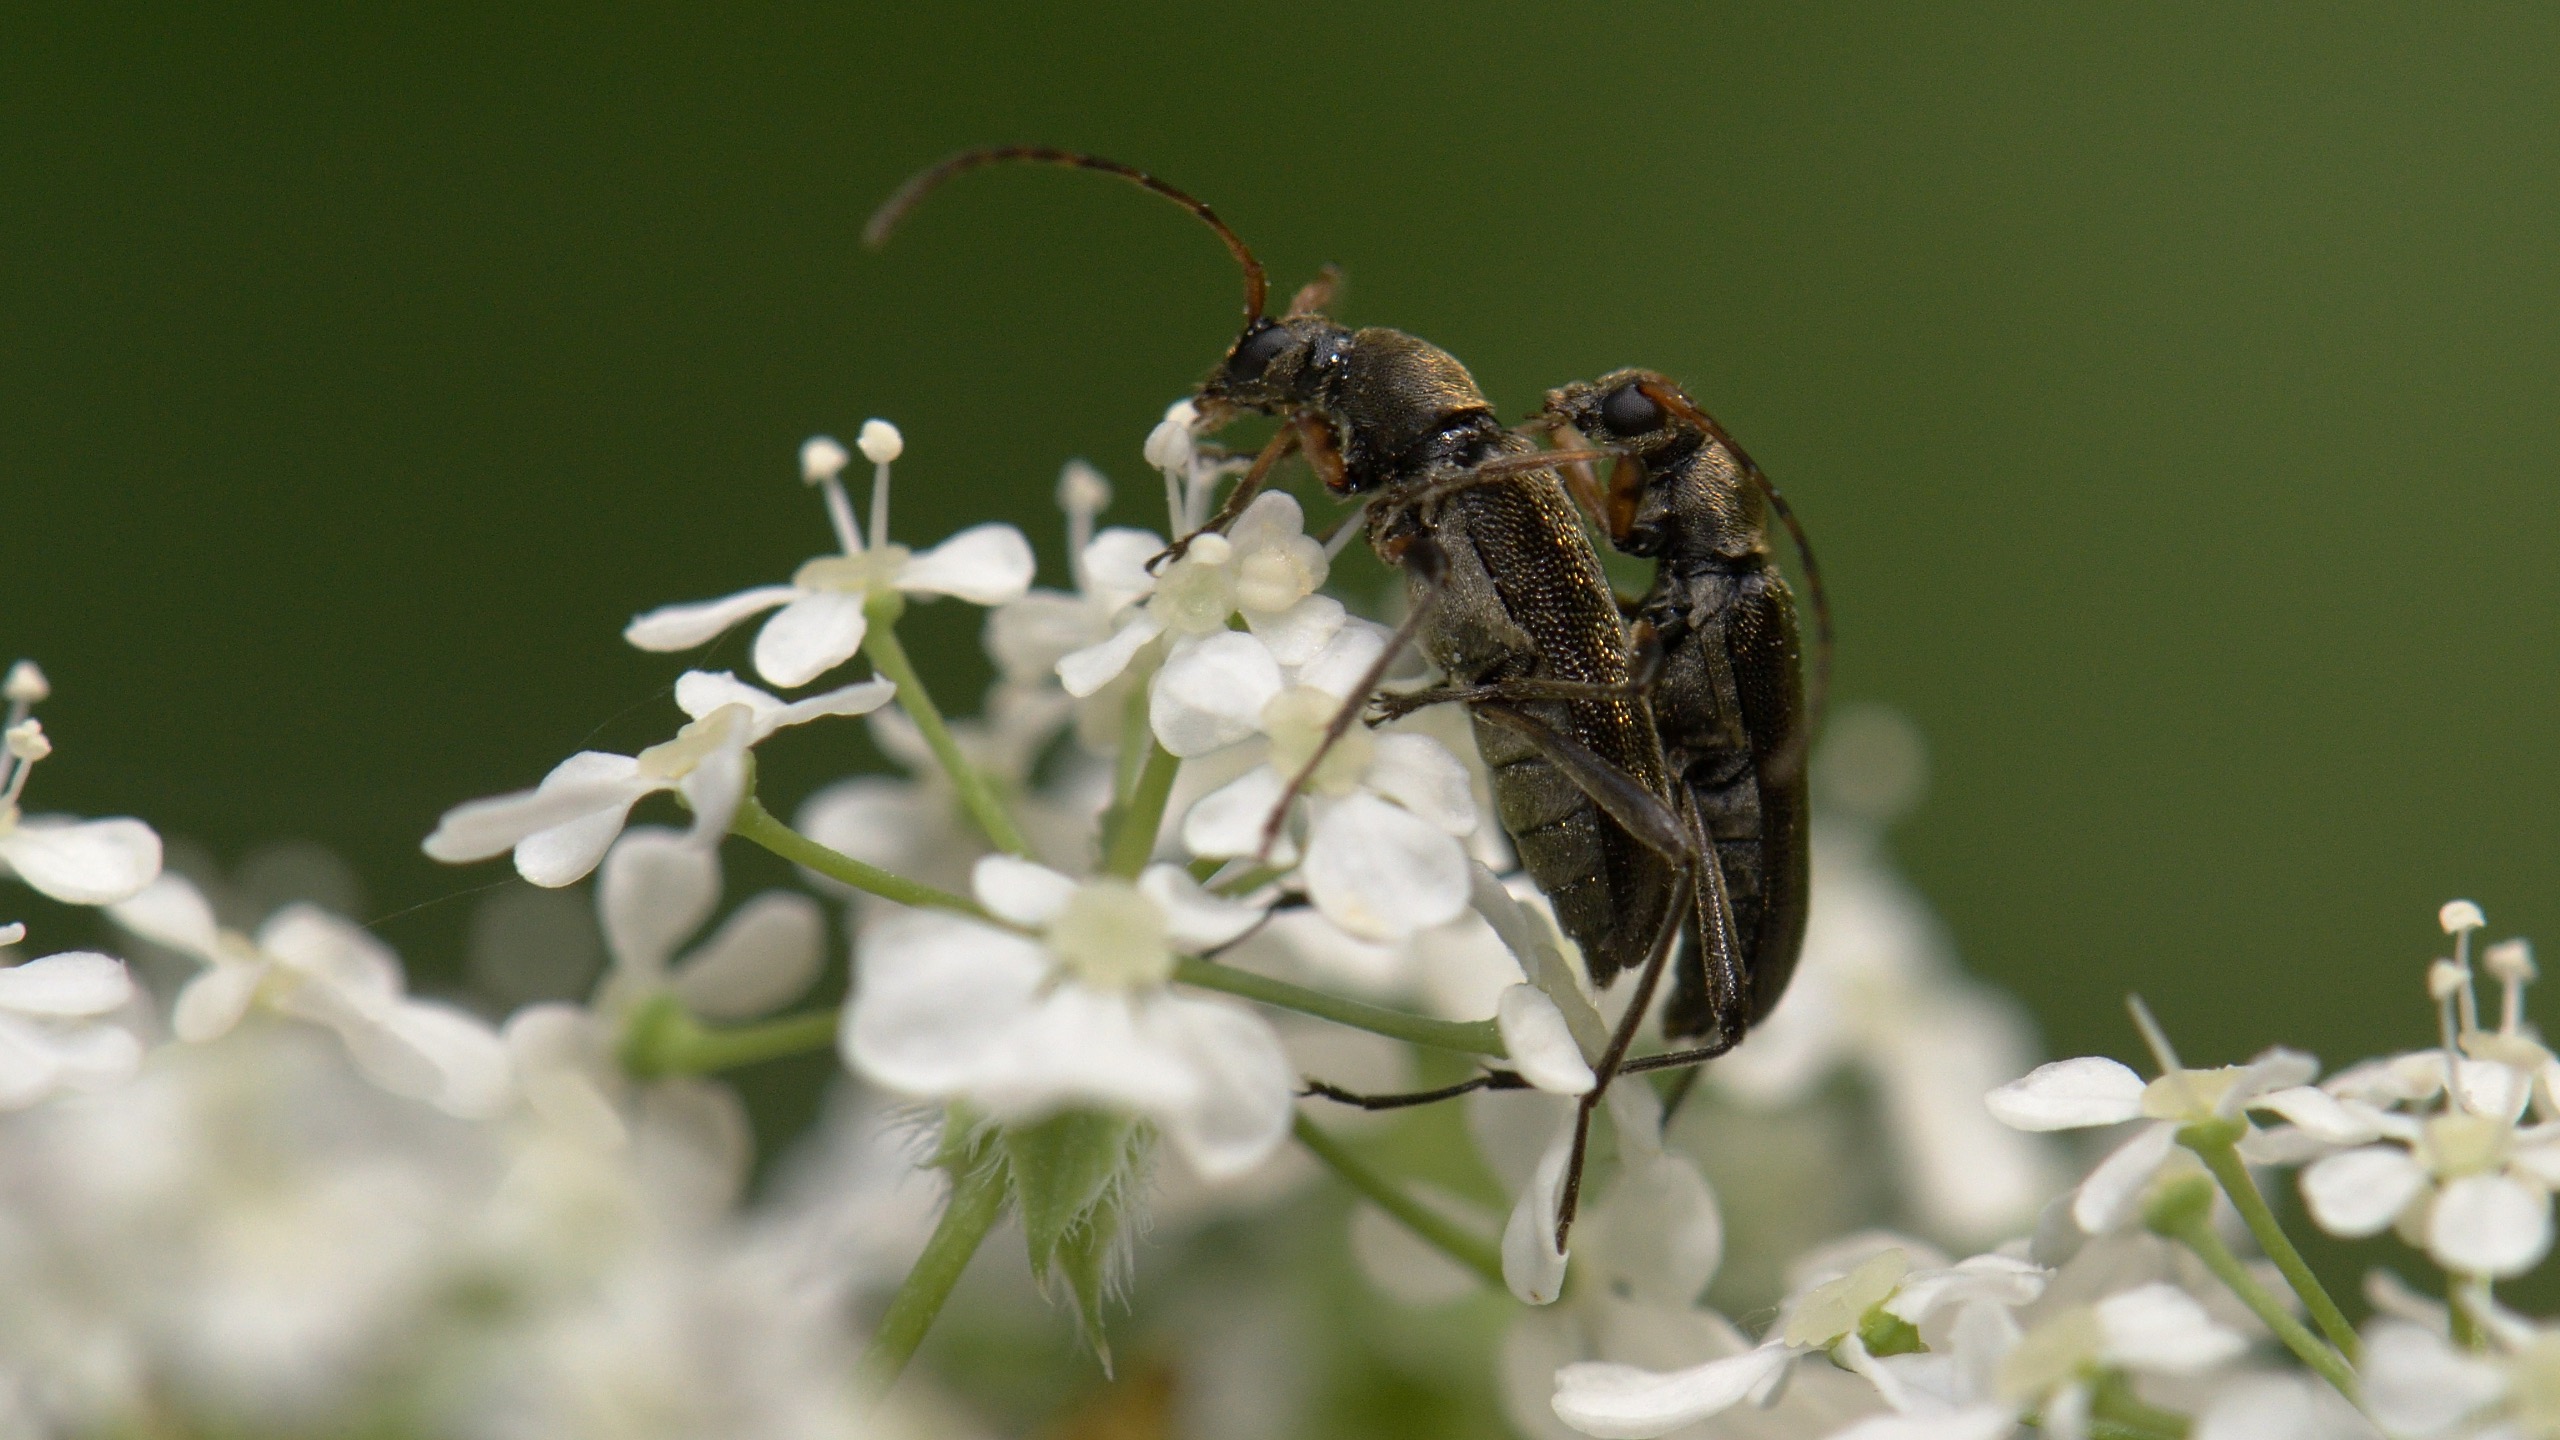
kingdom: Animalia
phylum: Arthropoda
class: Insecta
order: Coleoptera
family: Cerambycidae
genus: Phytoecia
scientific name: Phytoecia cylindrica
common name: Kørvelbuk
